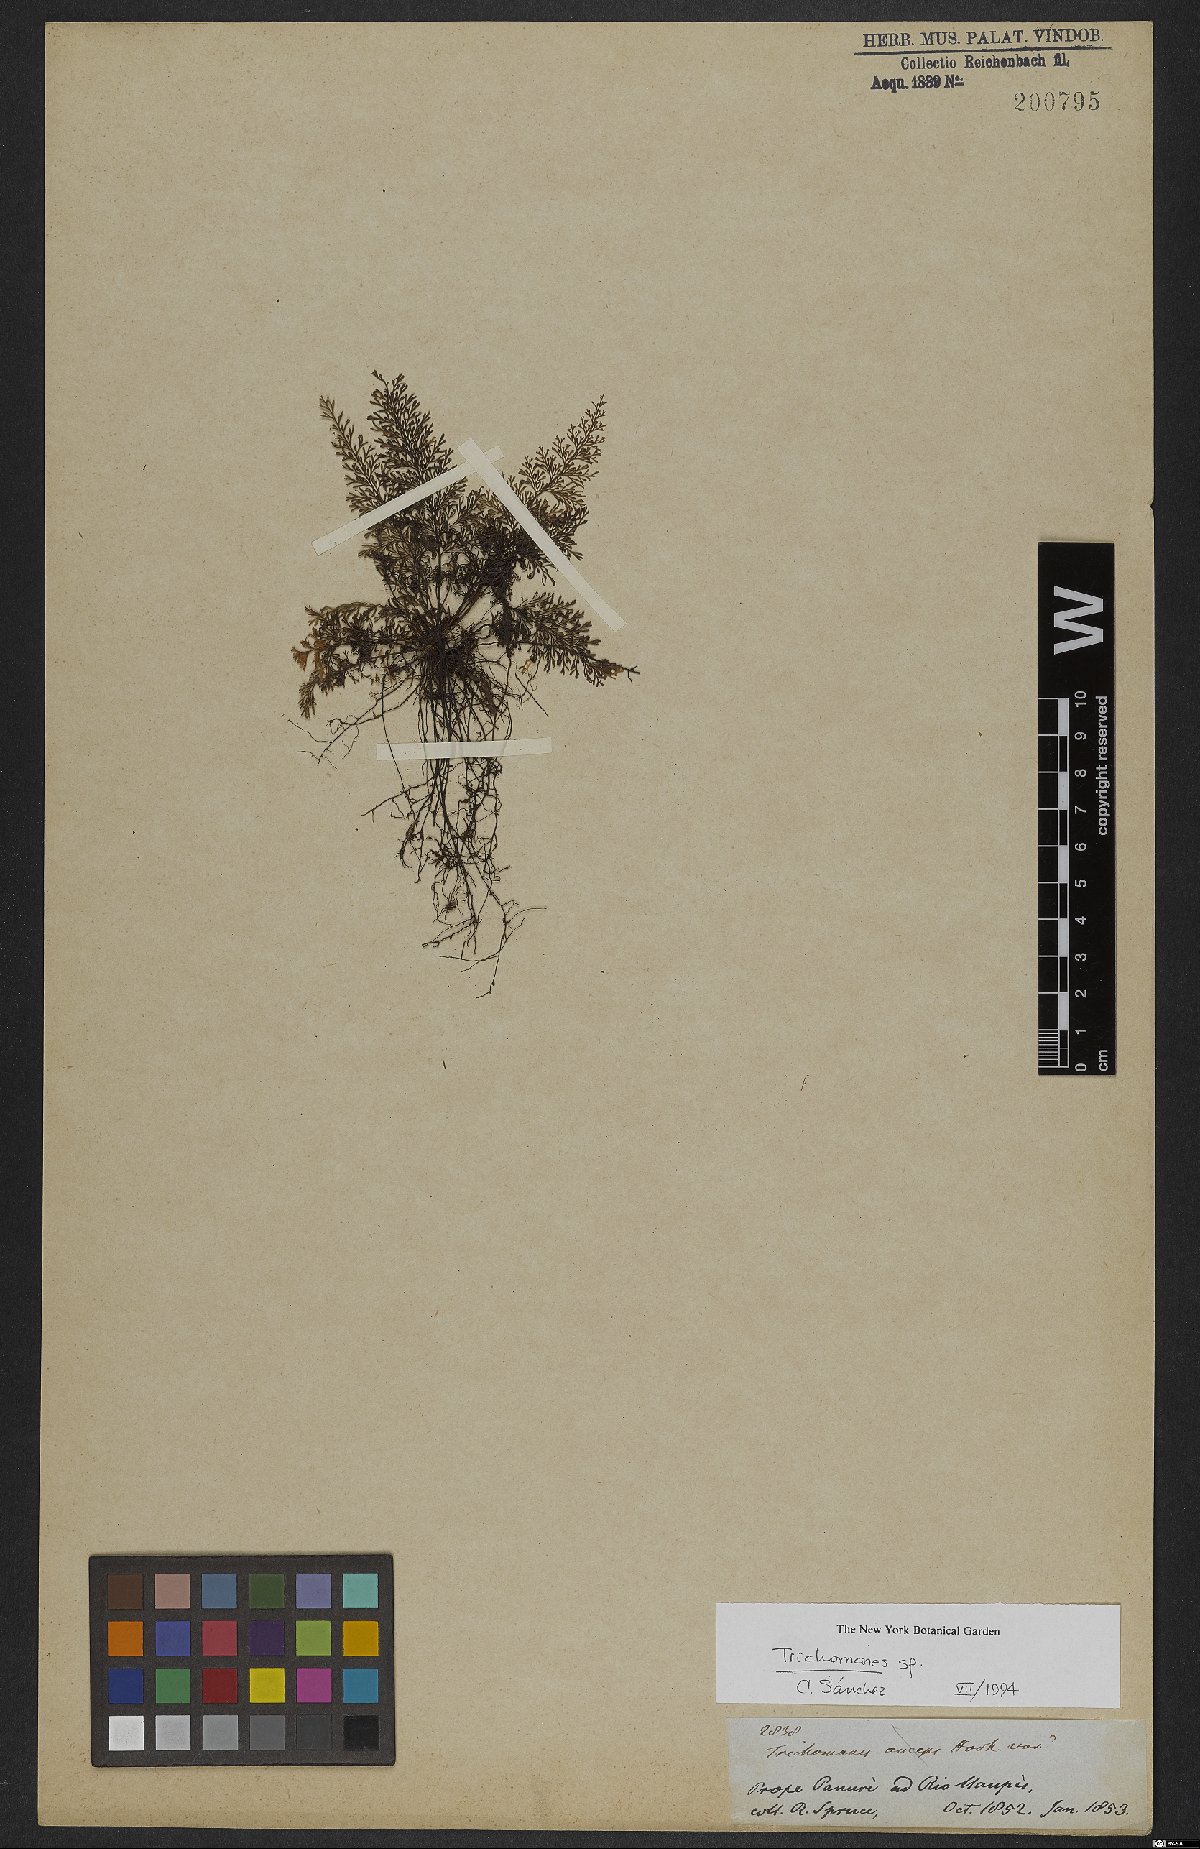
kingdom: Plantae
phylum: Tracheophyta
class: Polypodiopsida
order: Hymenophyllales
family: Hymenophyllaceae
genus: Trichomanes
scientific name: Trichomanes
